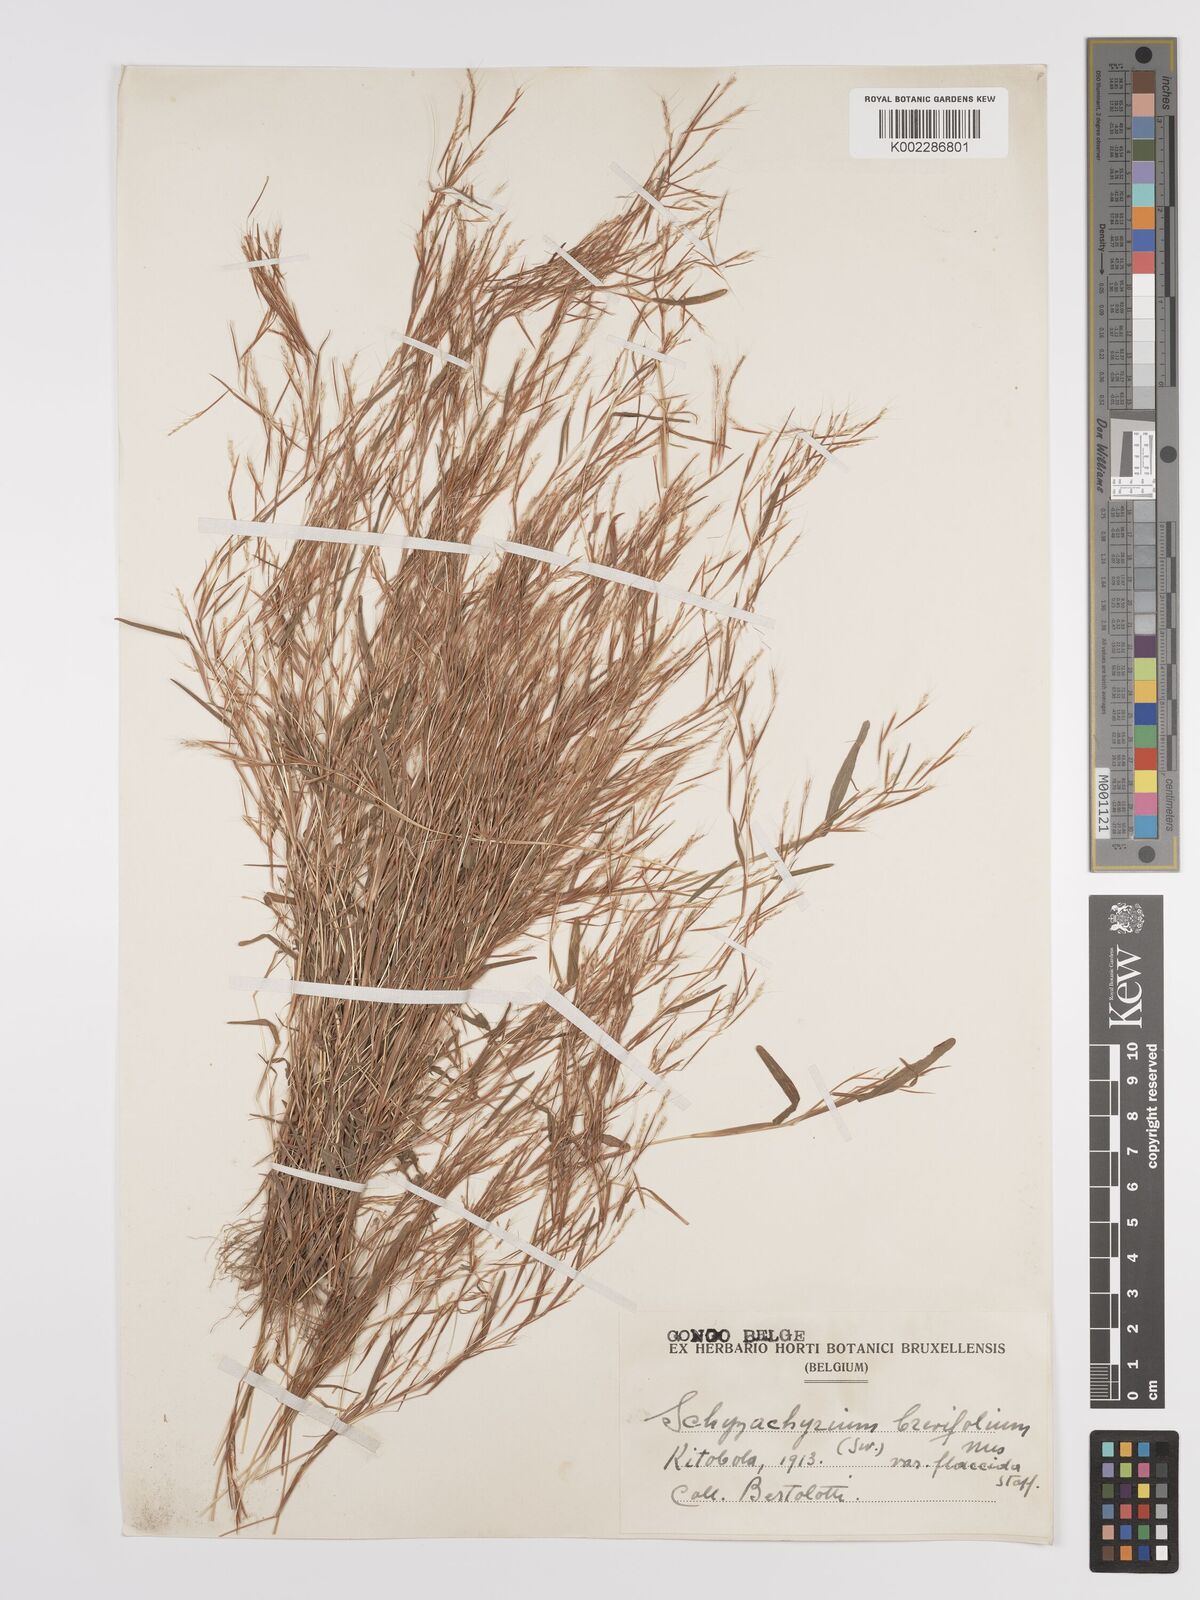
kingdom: Plantae
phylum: Tracheophyta
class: Liliopsida
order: Poales
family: Poaceae
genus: Schizachyrium
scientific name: Schizachyrium brevifolium
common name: Serillo dulce
